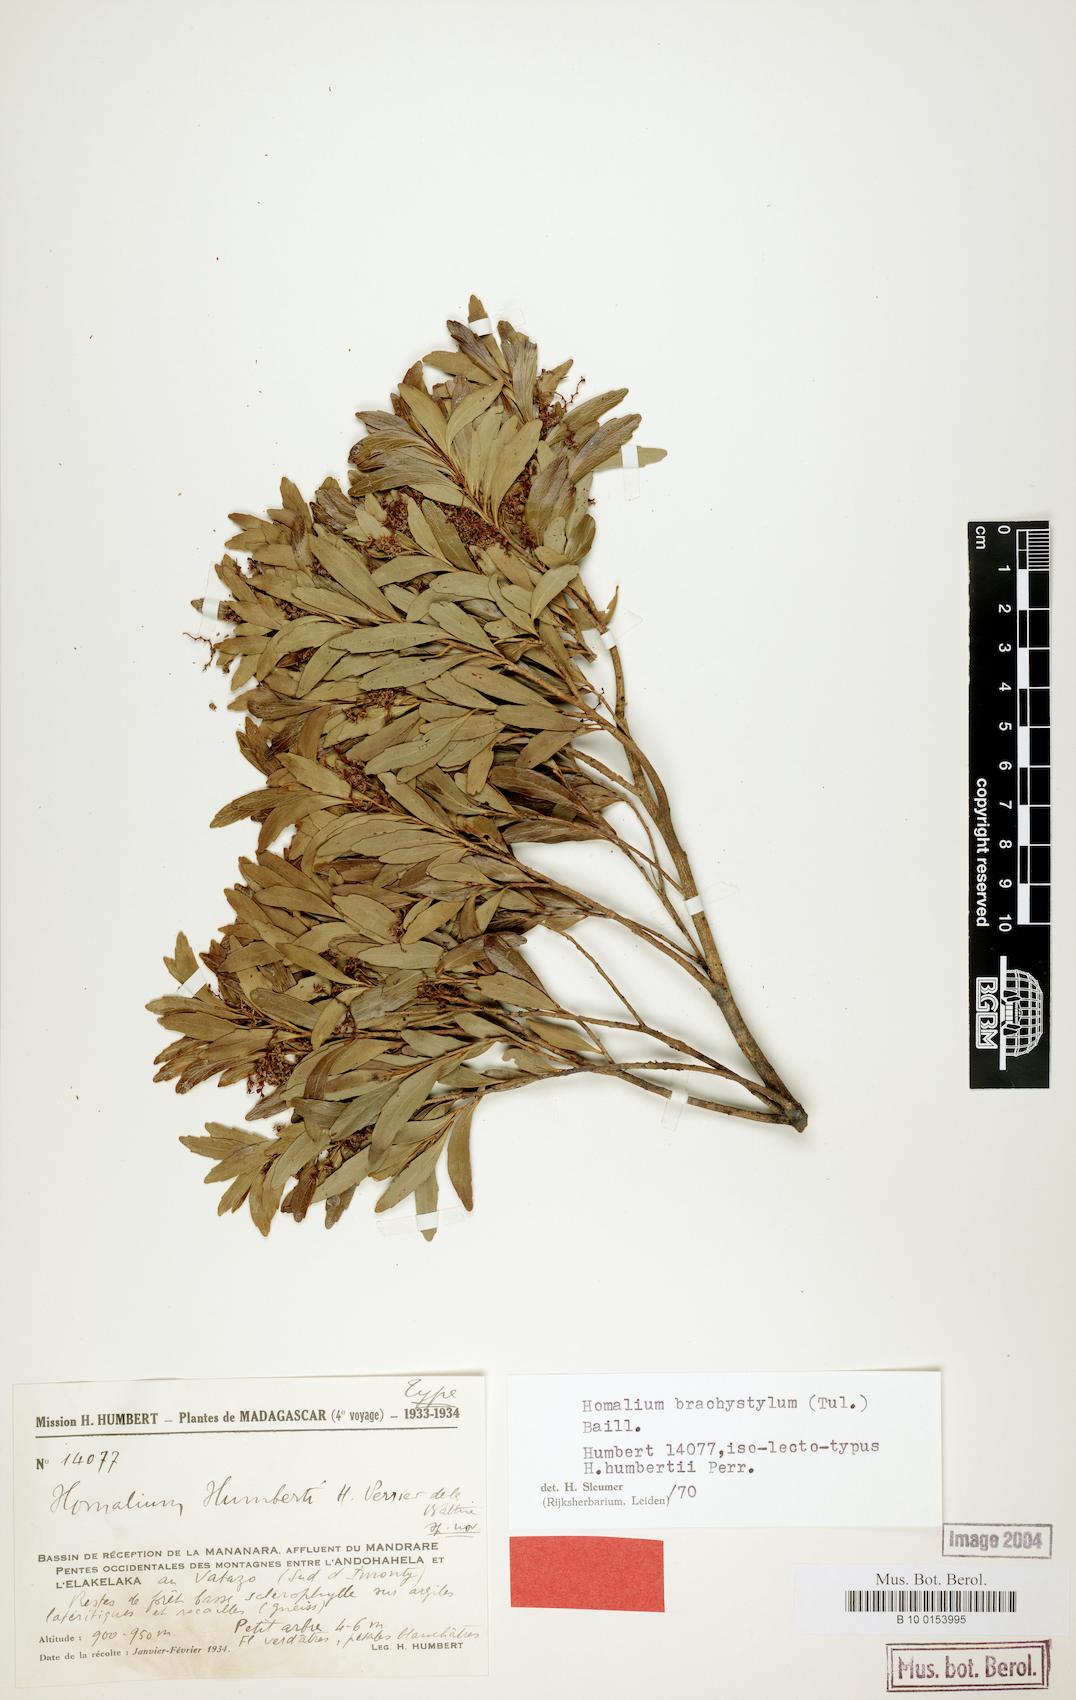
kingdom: Plantae
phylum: Tracheophyta
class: Magnoliopsida
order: Malpighiales
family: Salicaceae
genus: Homalium
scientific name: Homalium brachystylum
